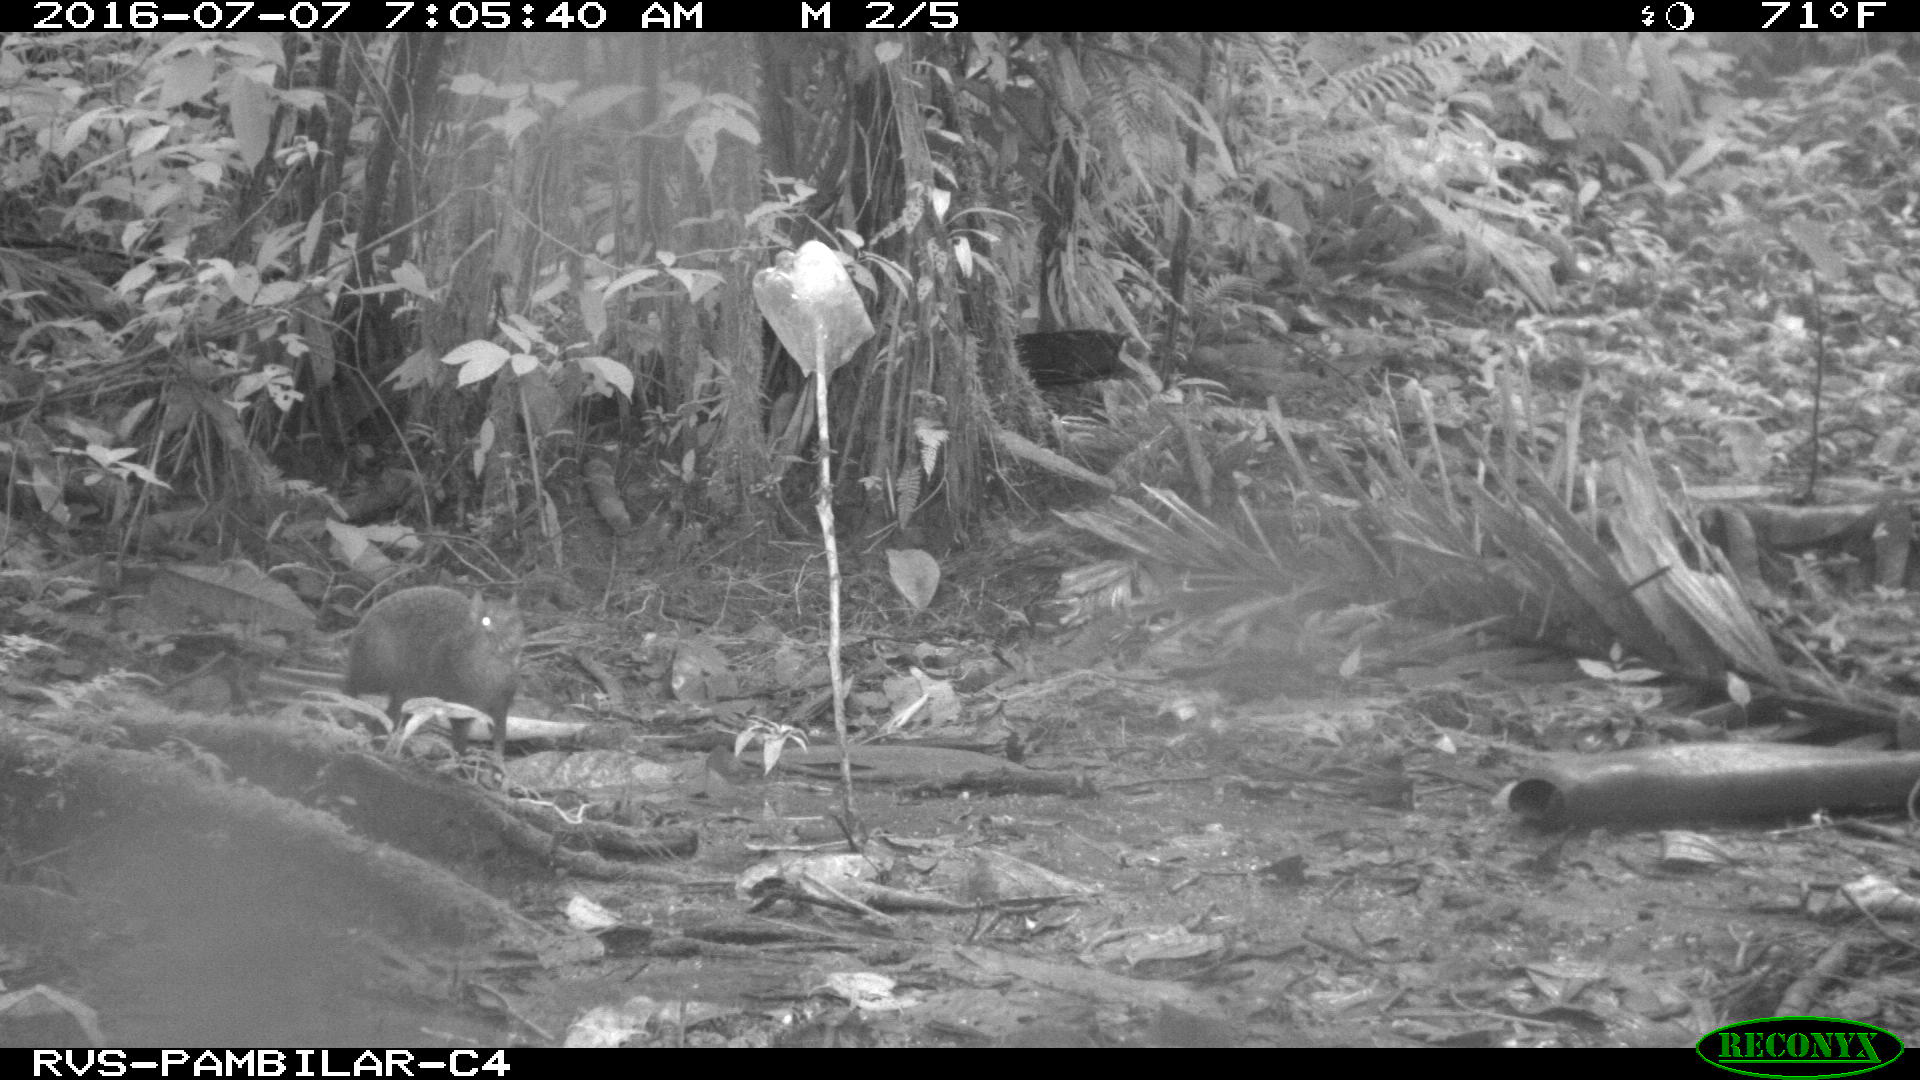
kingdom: Animalia
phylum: Chordata
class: Mammalia
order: Rodentia
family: Dasyproctidae
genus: Dasyprocta
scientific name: Dasyprocta punctata
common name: Central american agouti
